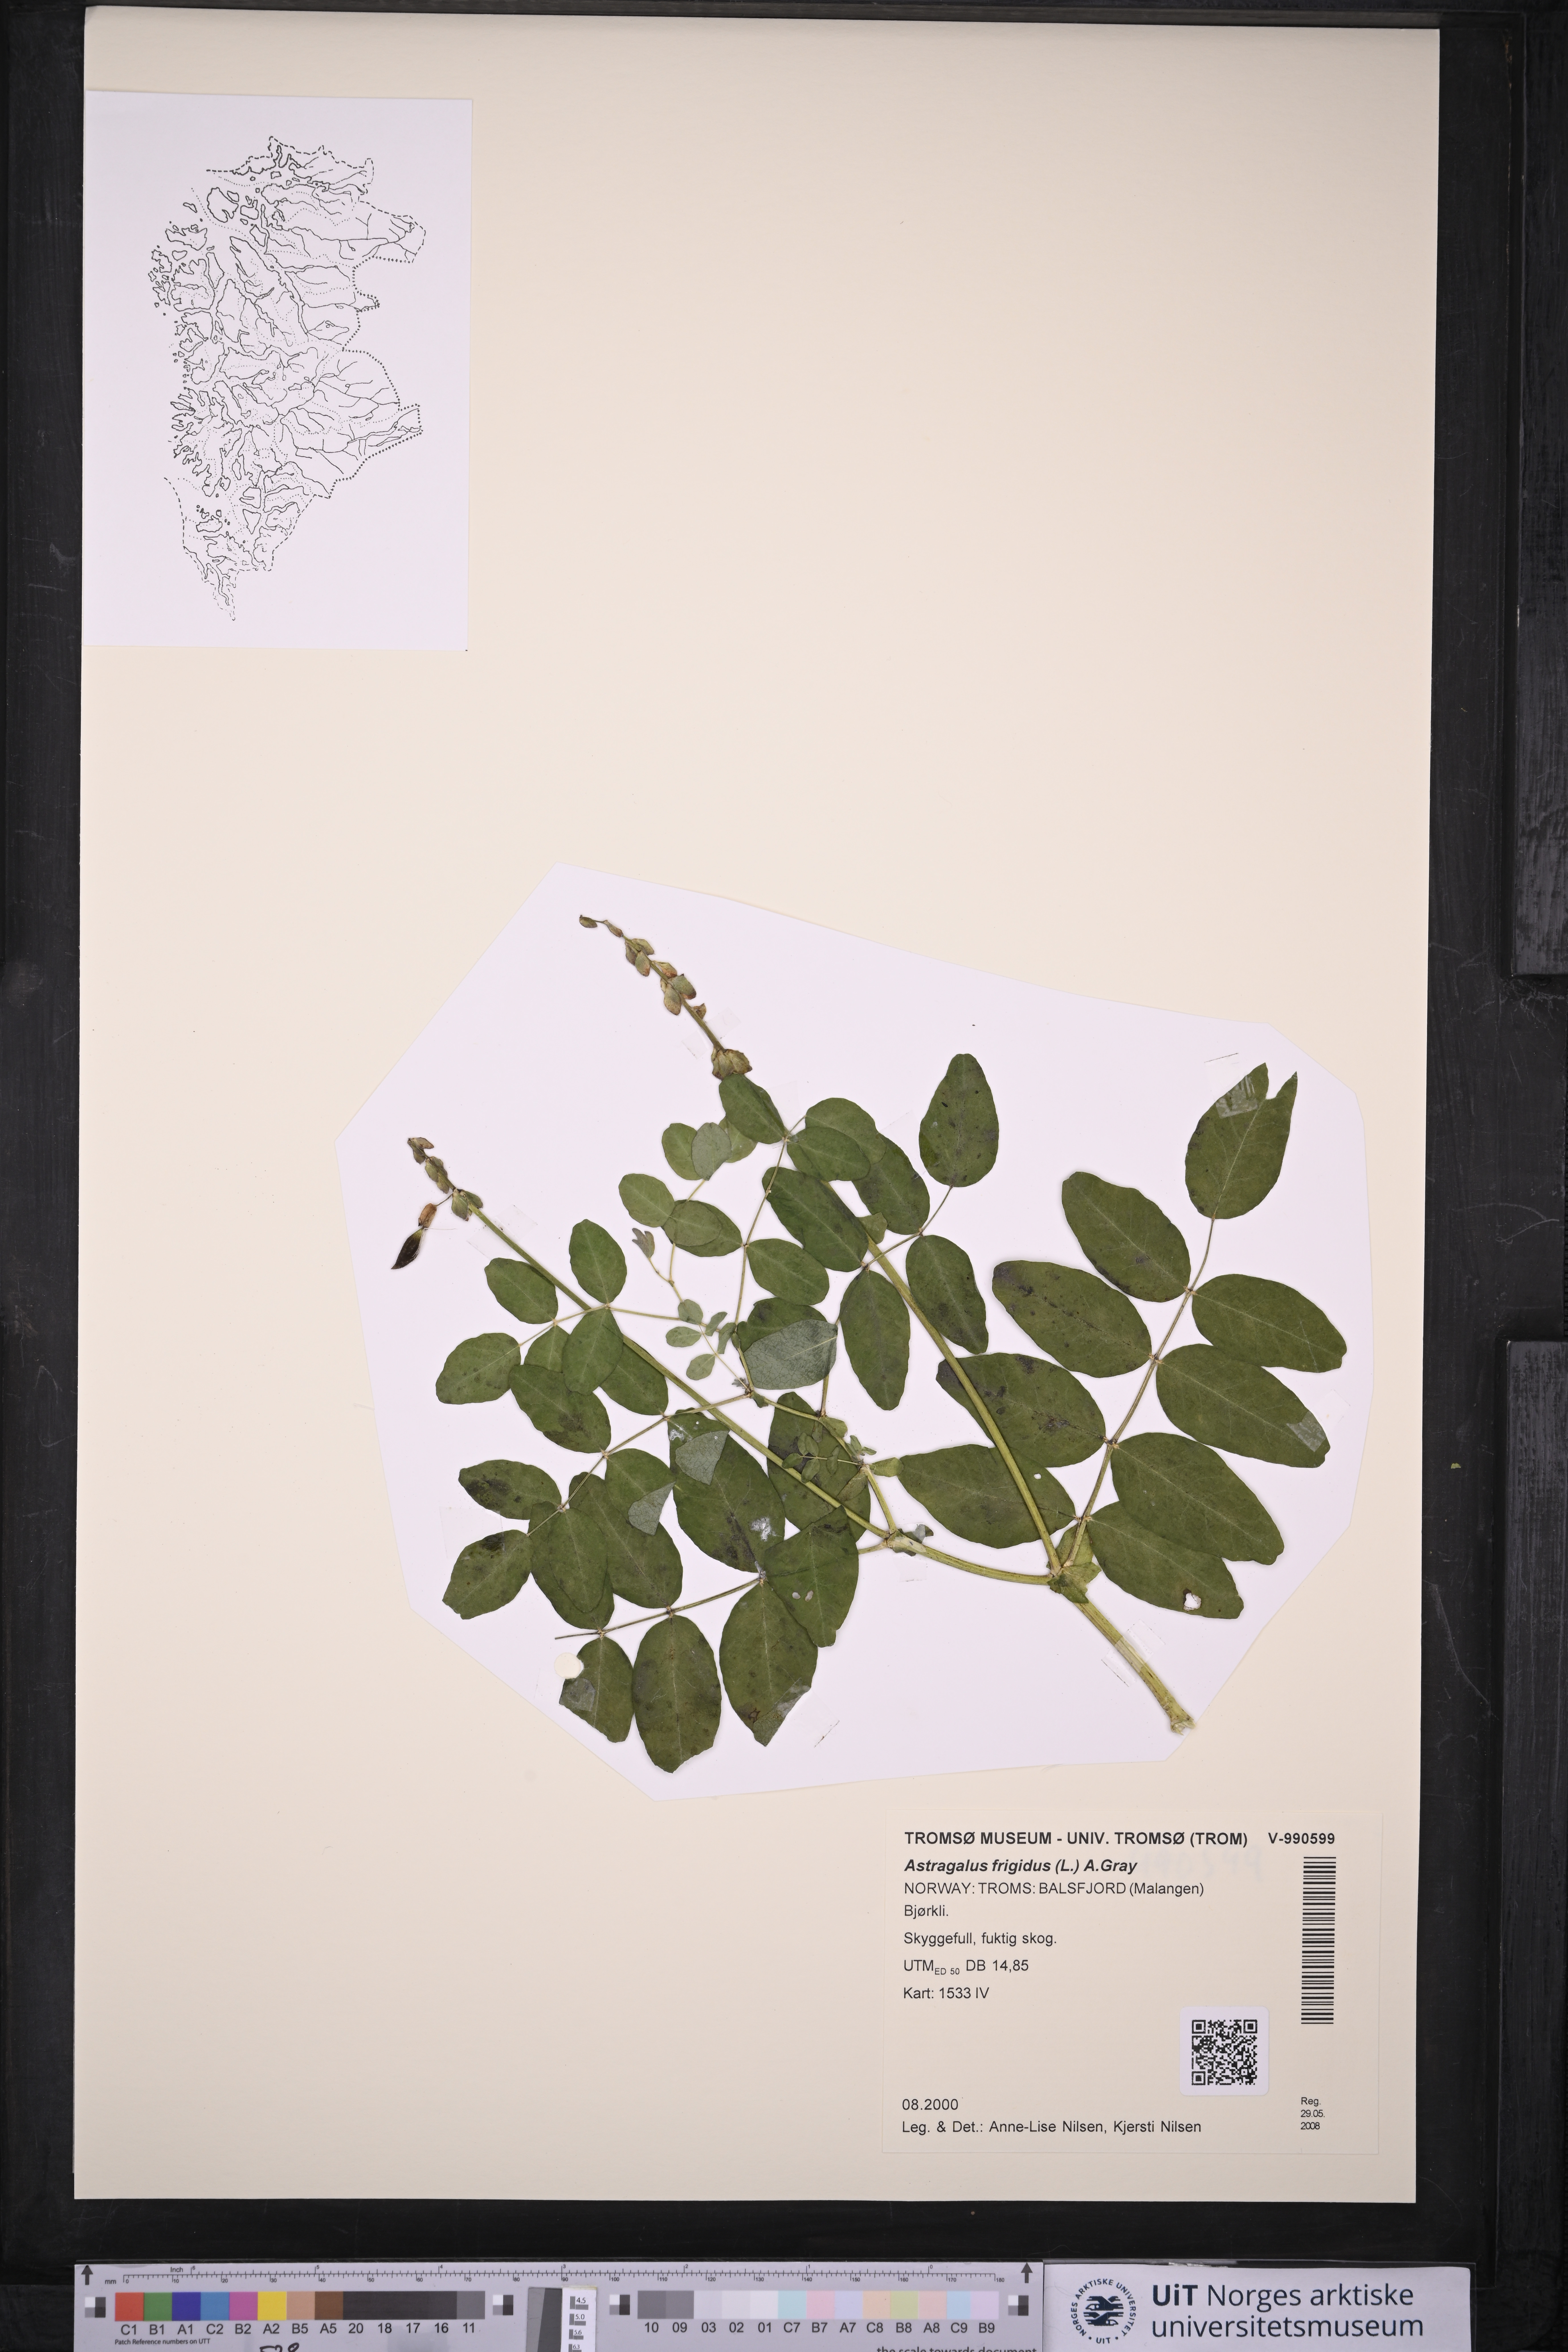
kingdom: Plantae
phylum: Tracheophyta
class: Magnoliopsida
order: Fabales
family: Fabaceae
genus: Astragalus
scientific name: Astragalus frigidus
